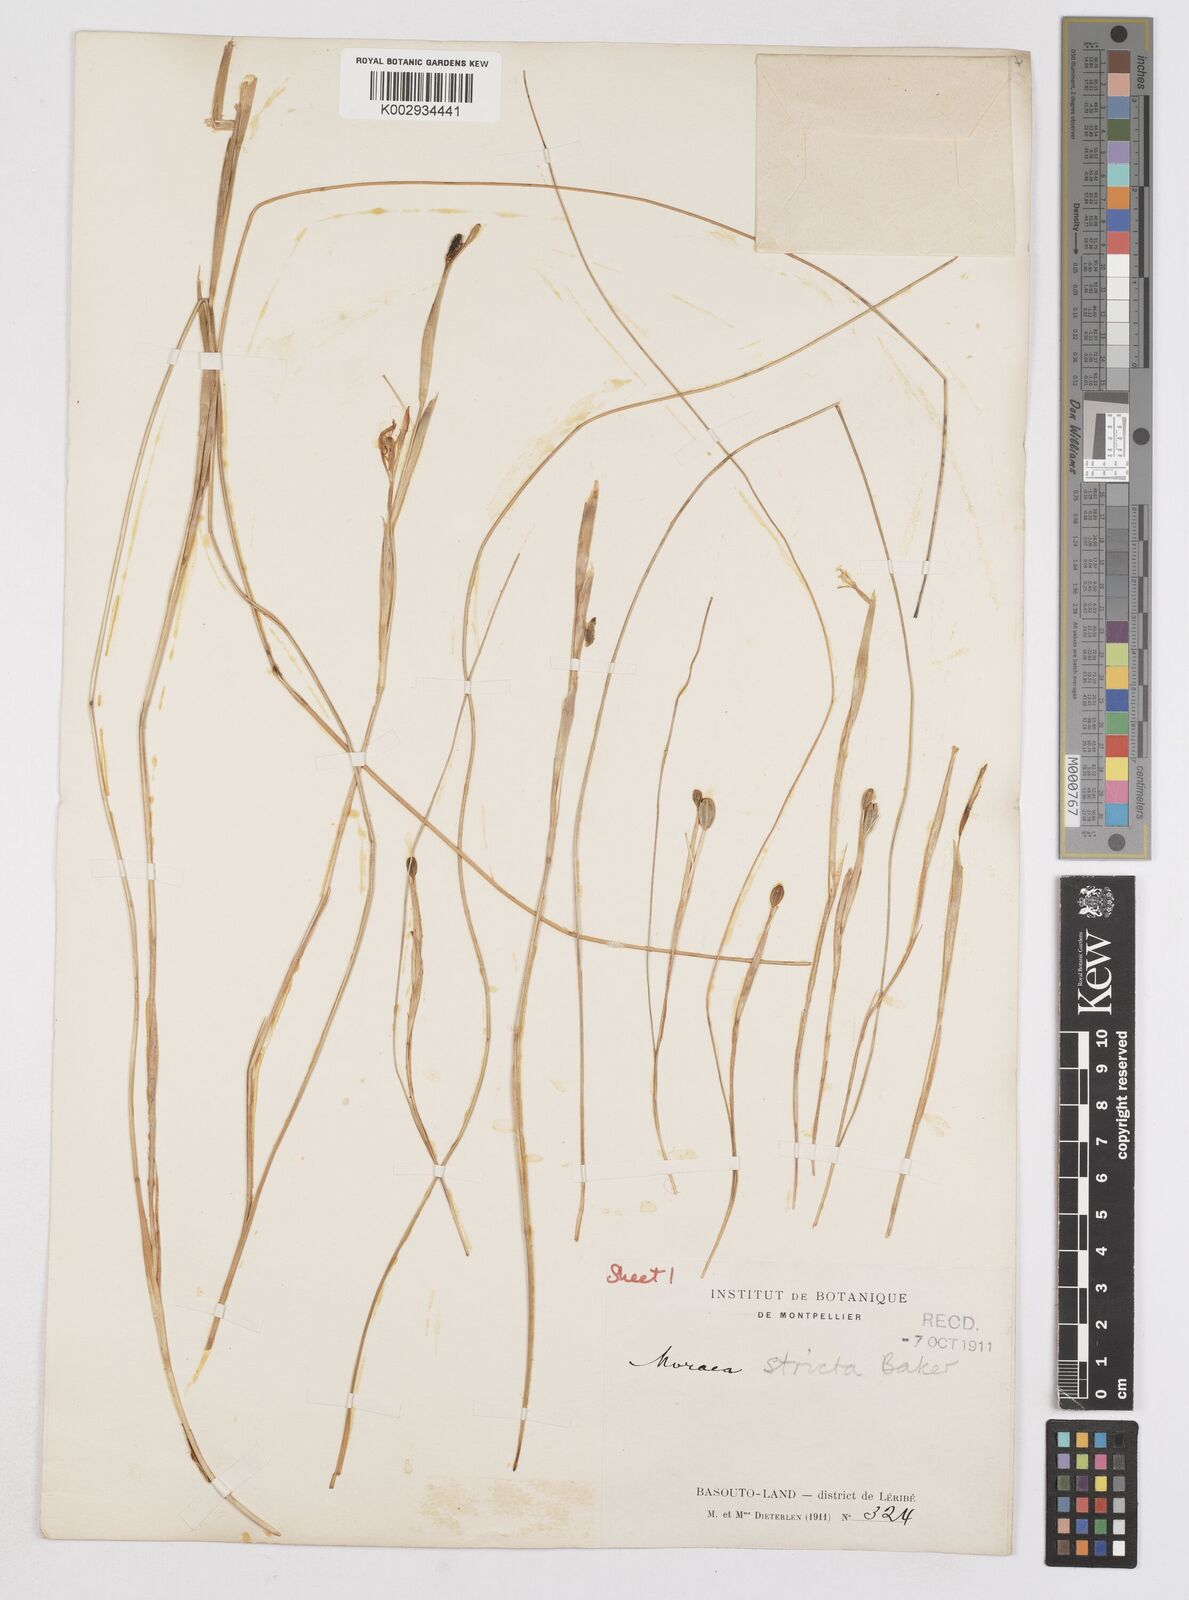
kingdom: Plantae
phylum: Tracheophyta
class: Liliopsida
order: Asparagales
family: Iridaceae
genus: Moraea
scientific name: Moraea stricta
